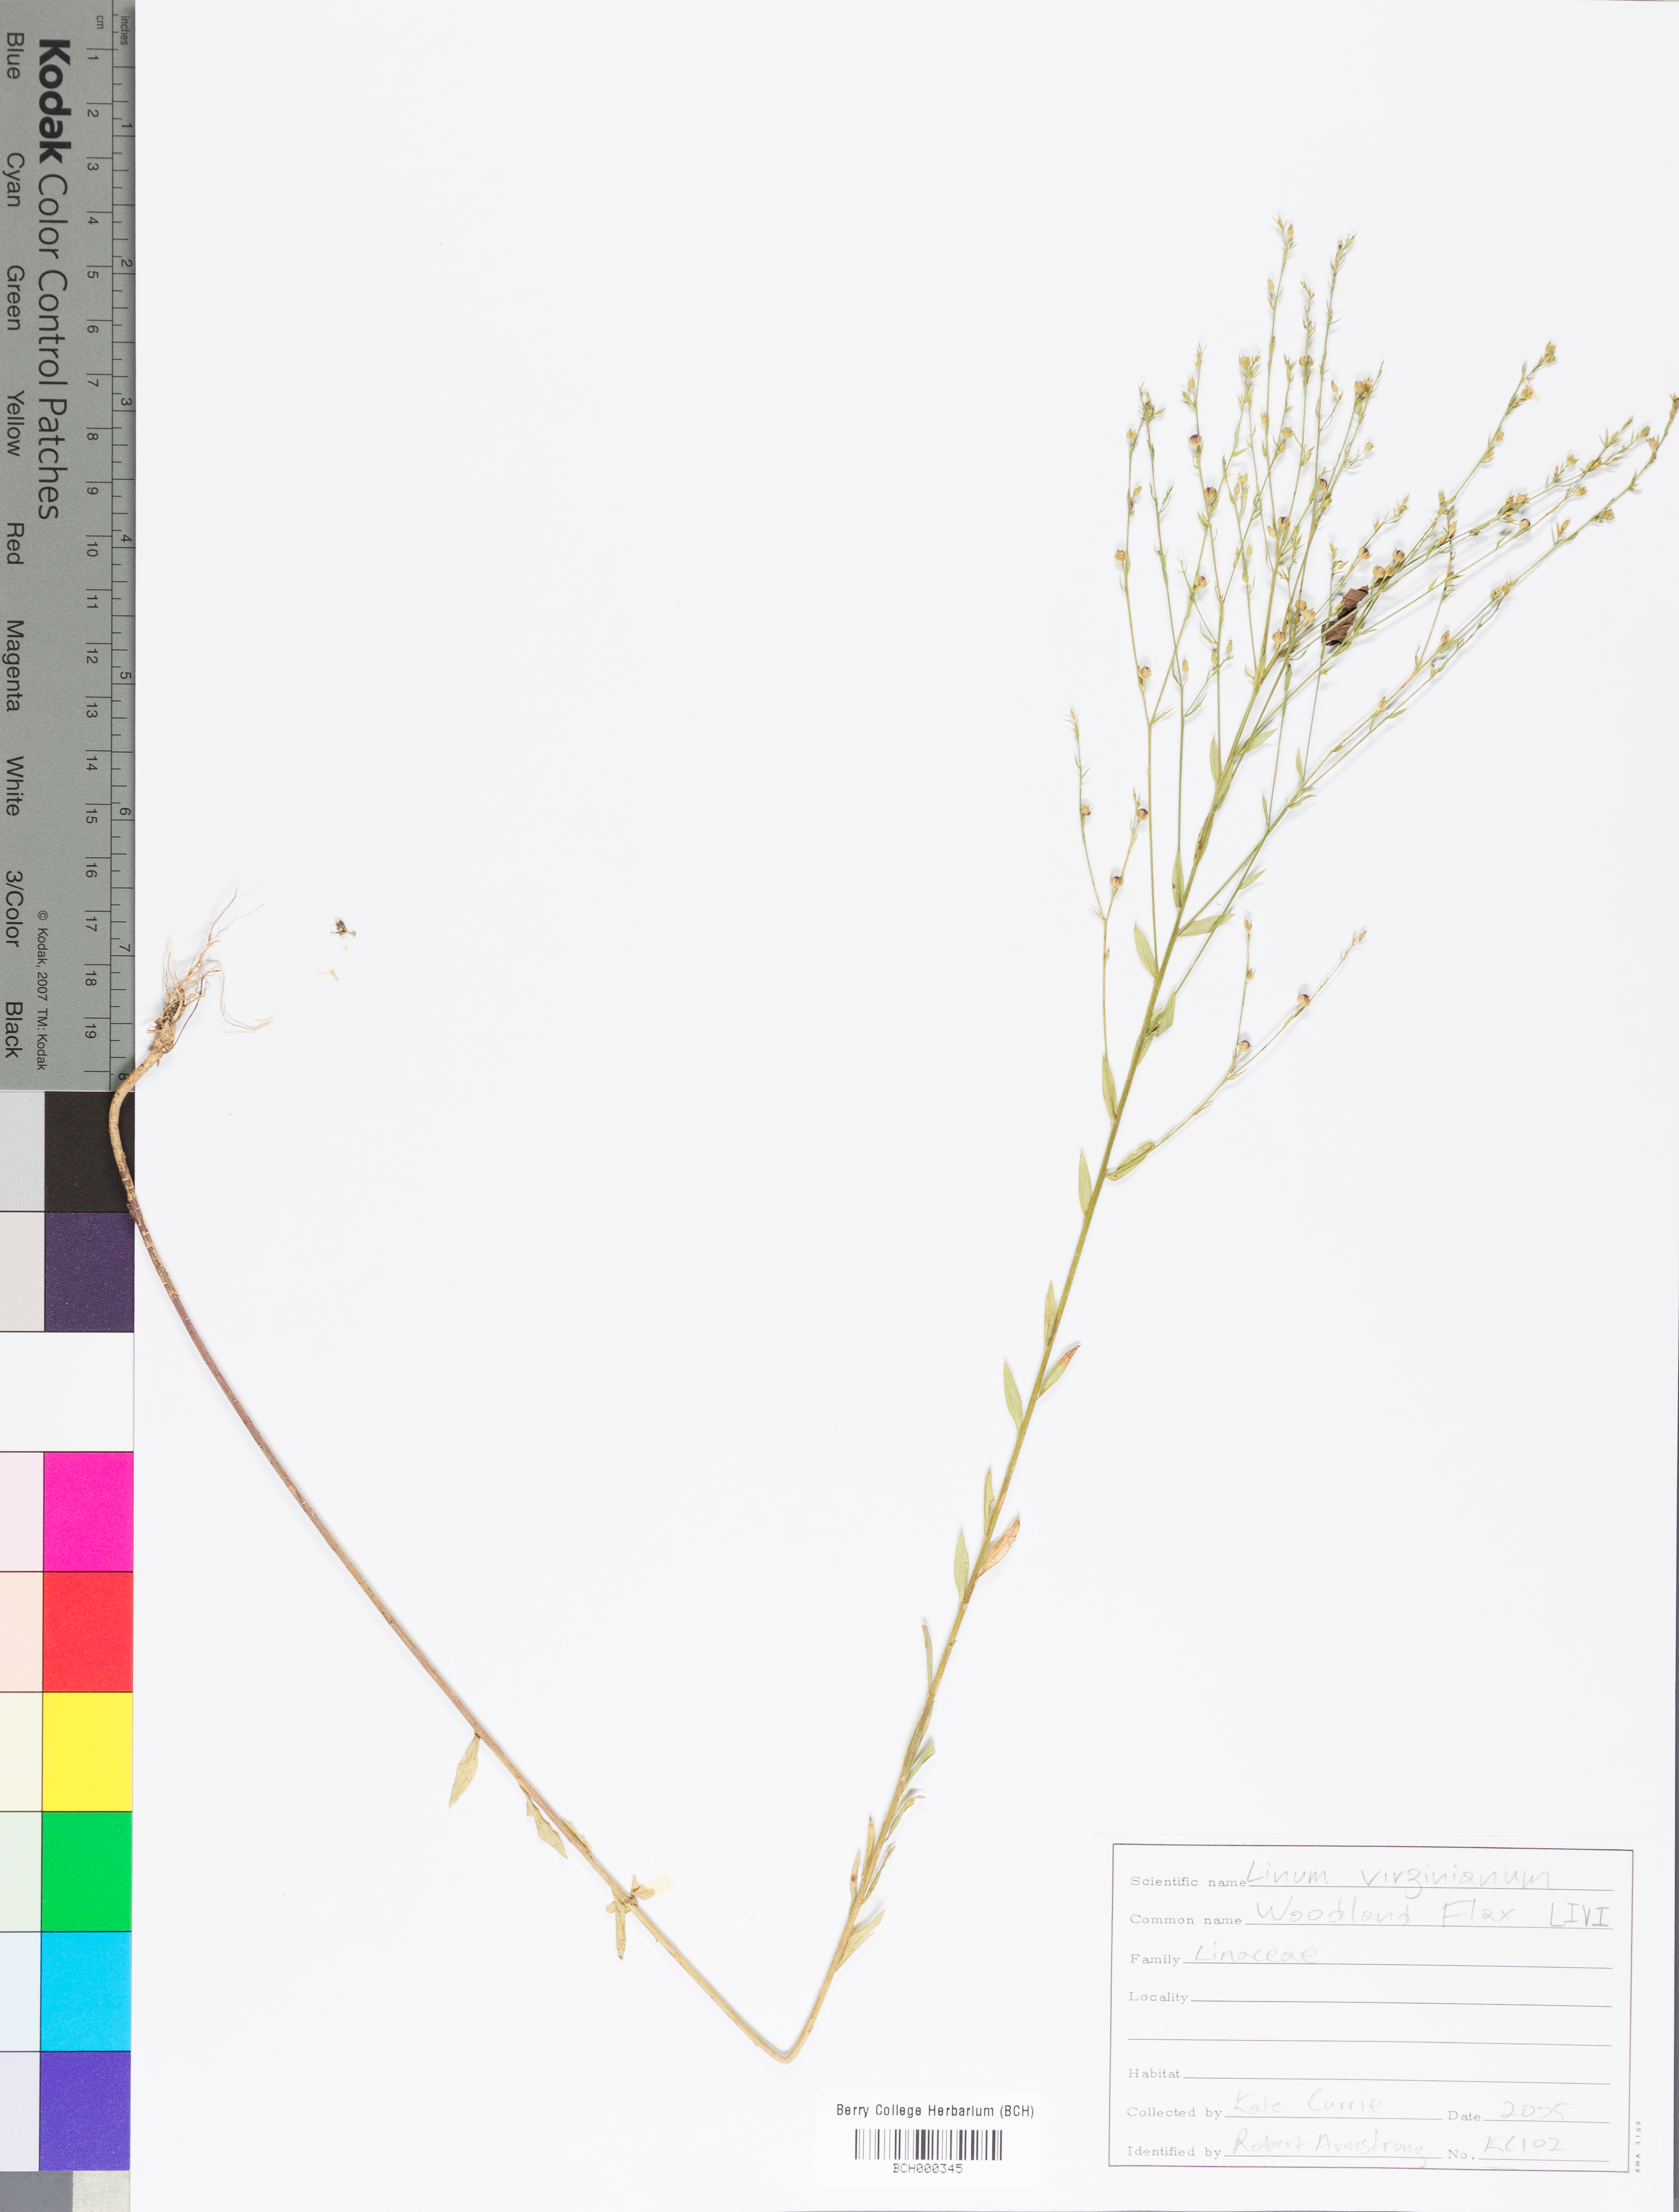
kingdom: Plantae
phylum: Tracheophyta
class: Magnoliopsida
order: Malpighiales
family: Linaceae
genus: Linum
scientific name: Linum virginianum
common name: Slender yellow flax
